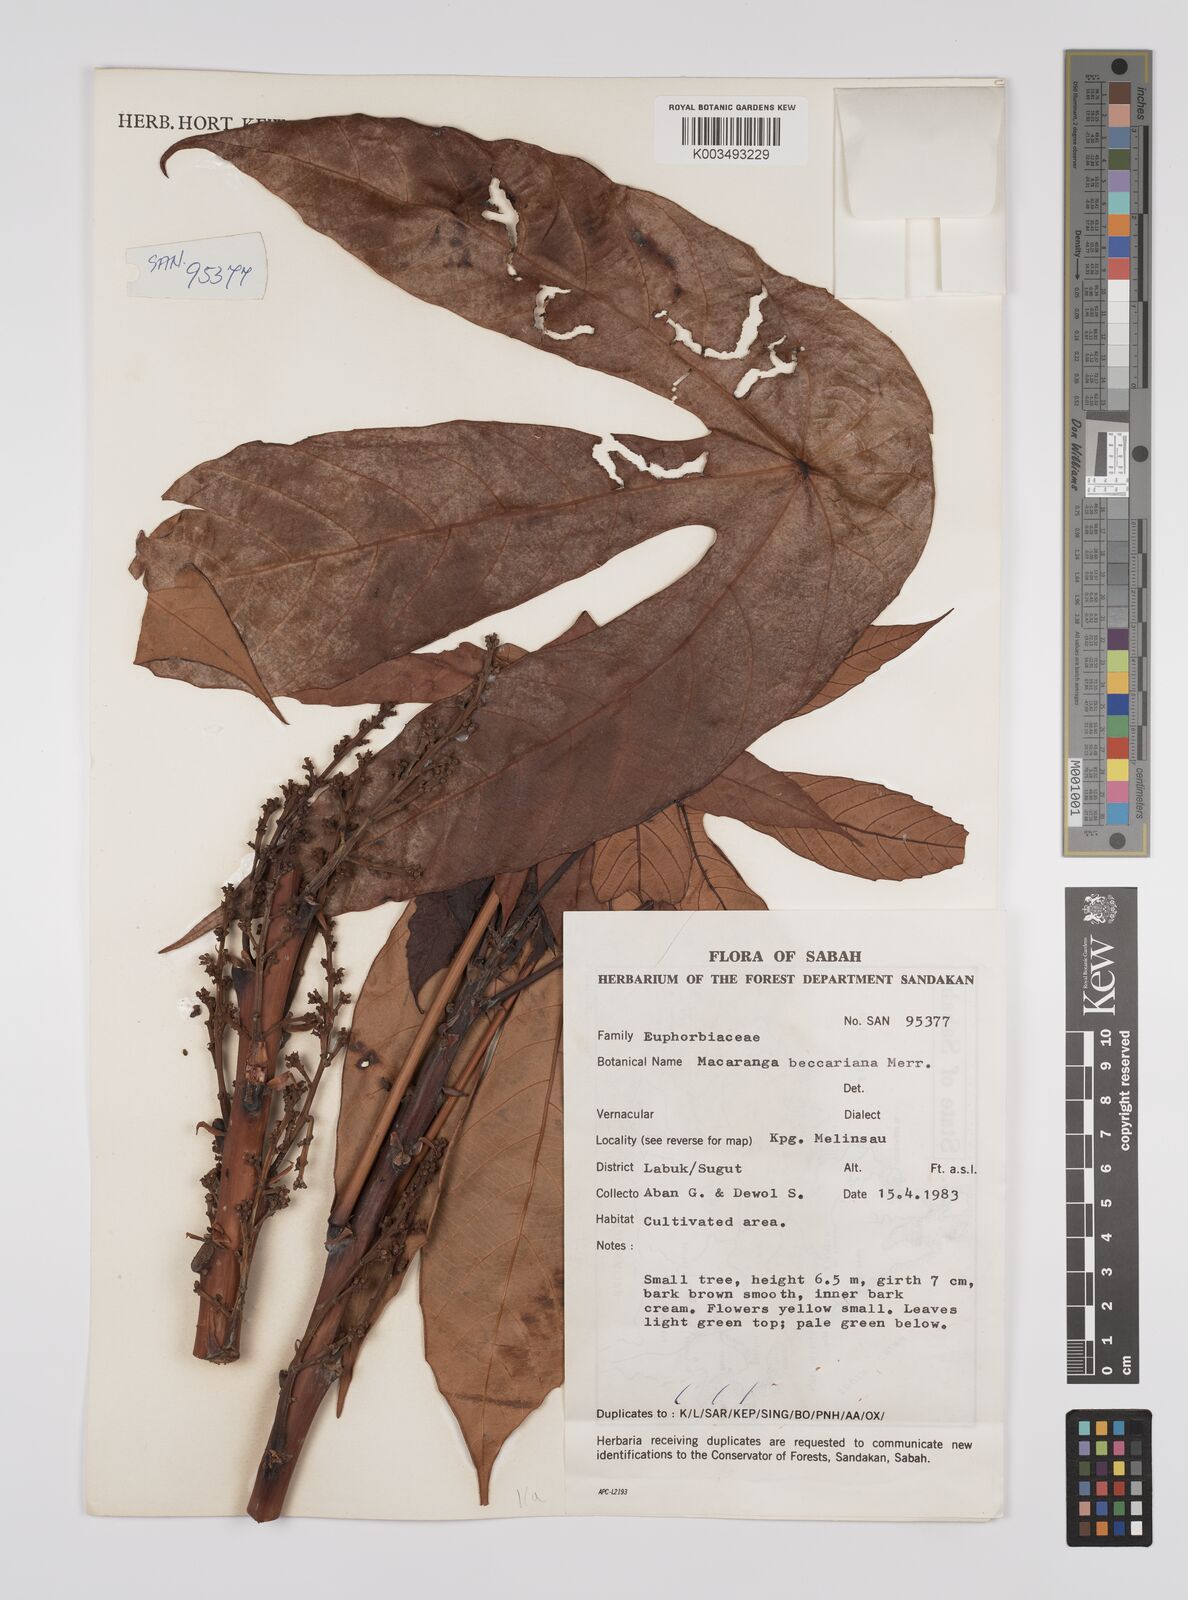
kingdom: Plantae
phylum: Tracheophyta
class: Magnoliopsida
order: Malpighiales
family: Euphorbiaceae
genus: Macaranga
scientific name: Macaranga beccariana
